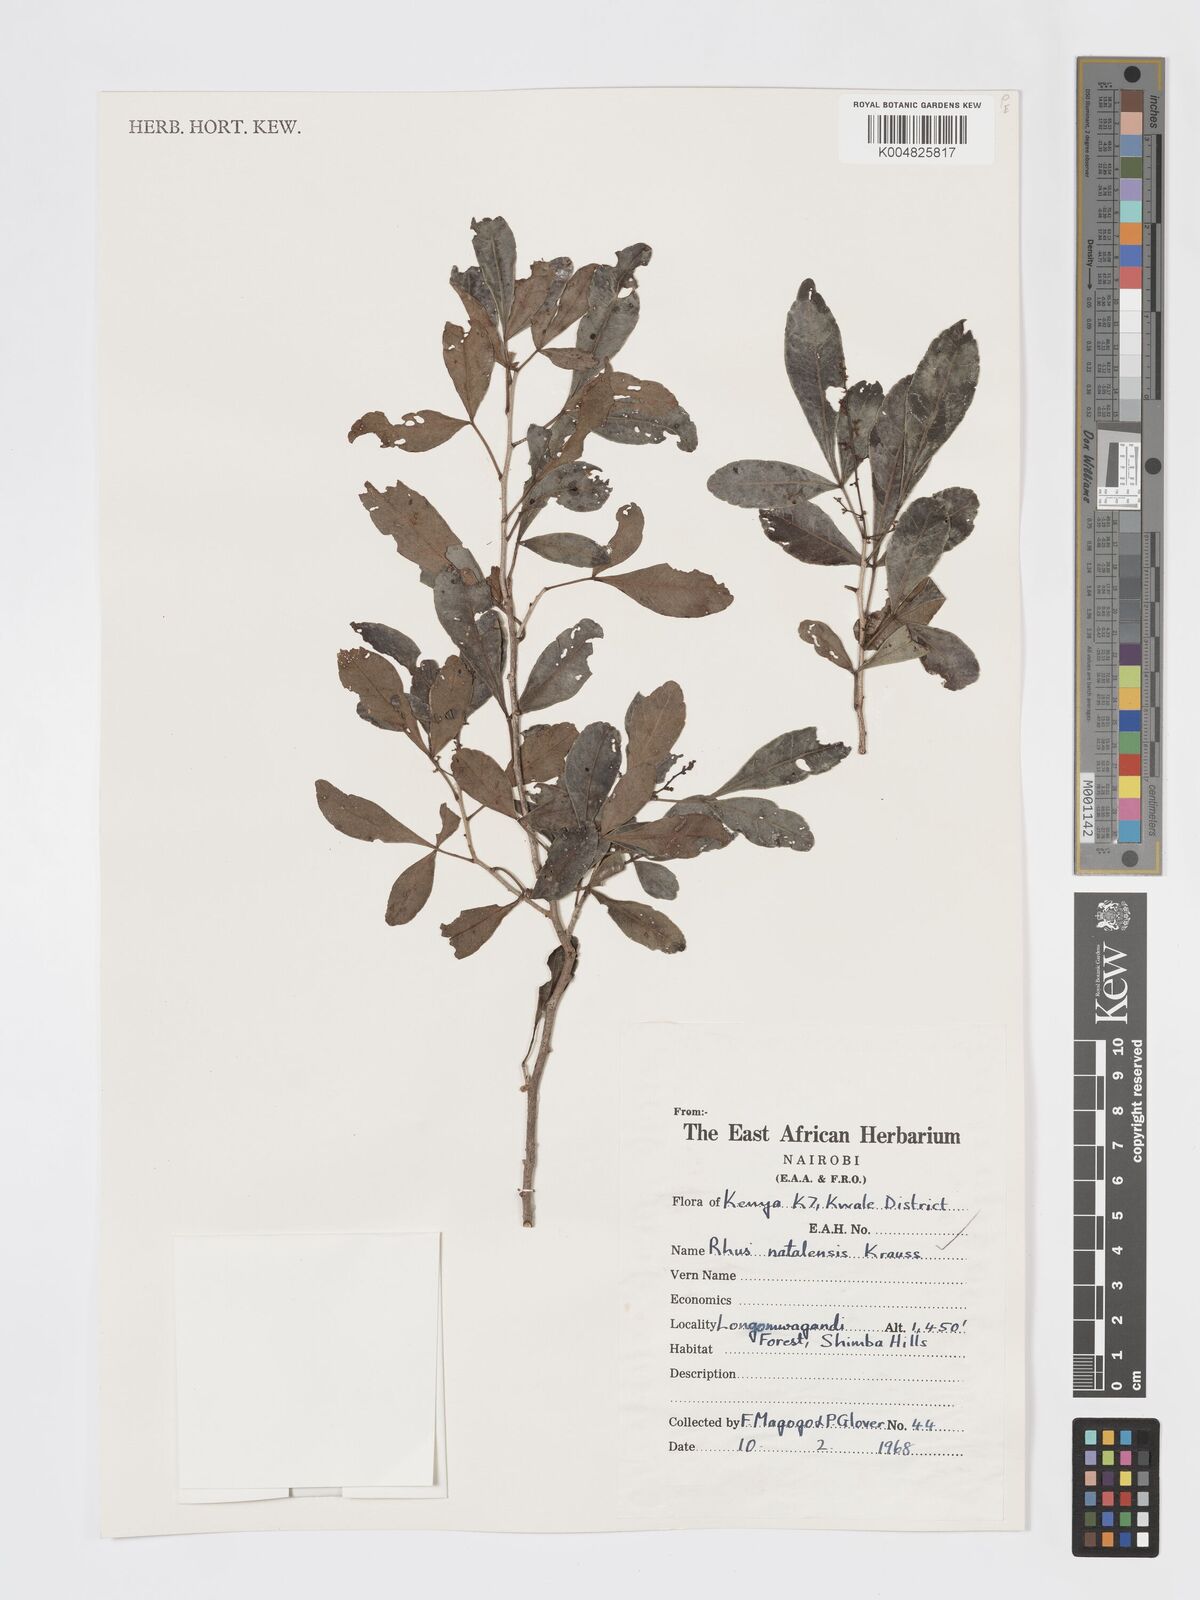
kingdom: Plantae
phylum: Tracheophyta
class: Magnoliopsida
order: Sapindales
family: Anacardiaceae
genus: Searsia
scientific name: Searsia natalensis
